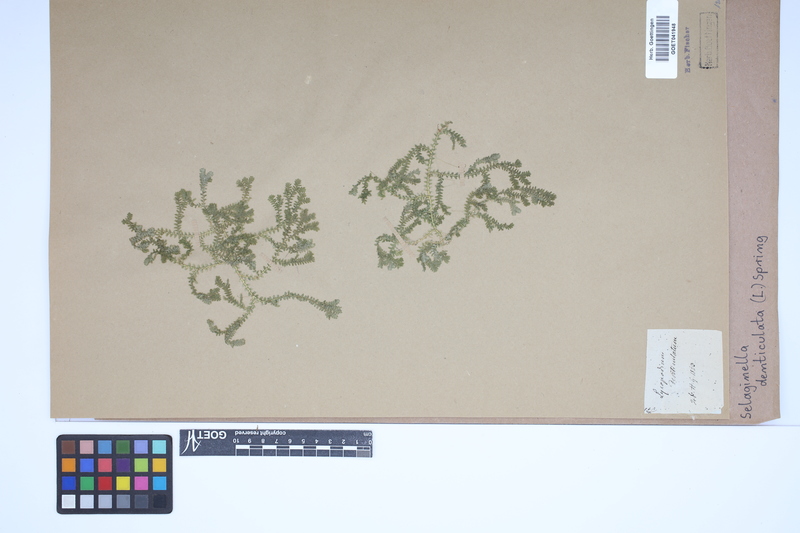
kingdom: Plantae
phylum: Tracheophyta
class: Lycopodiopsida
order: Selaginellales
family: Selaginellaceae
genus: Selaginella
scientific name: Selaginella denticulata
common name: Toothed-leaved clubmoss
